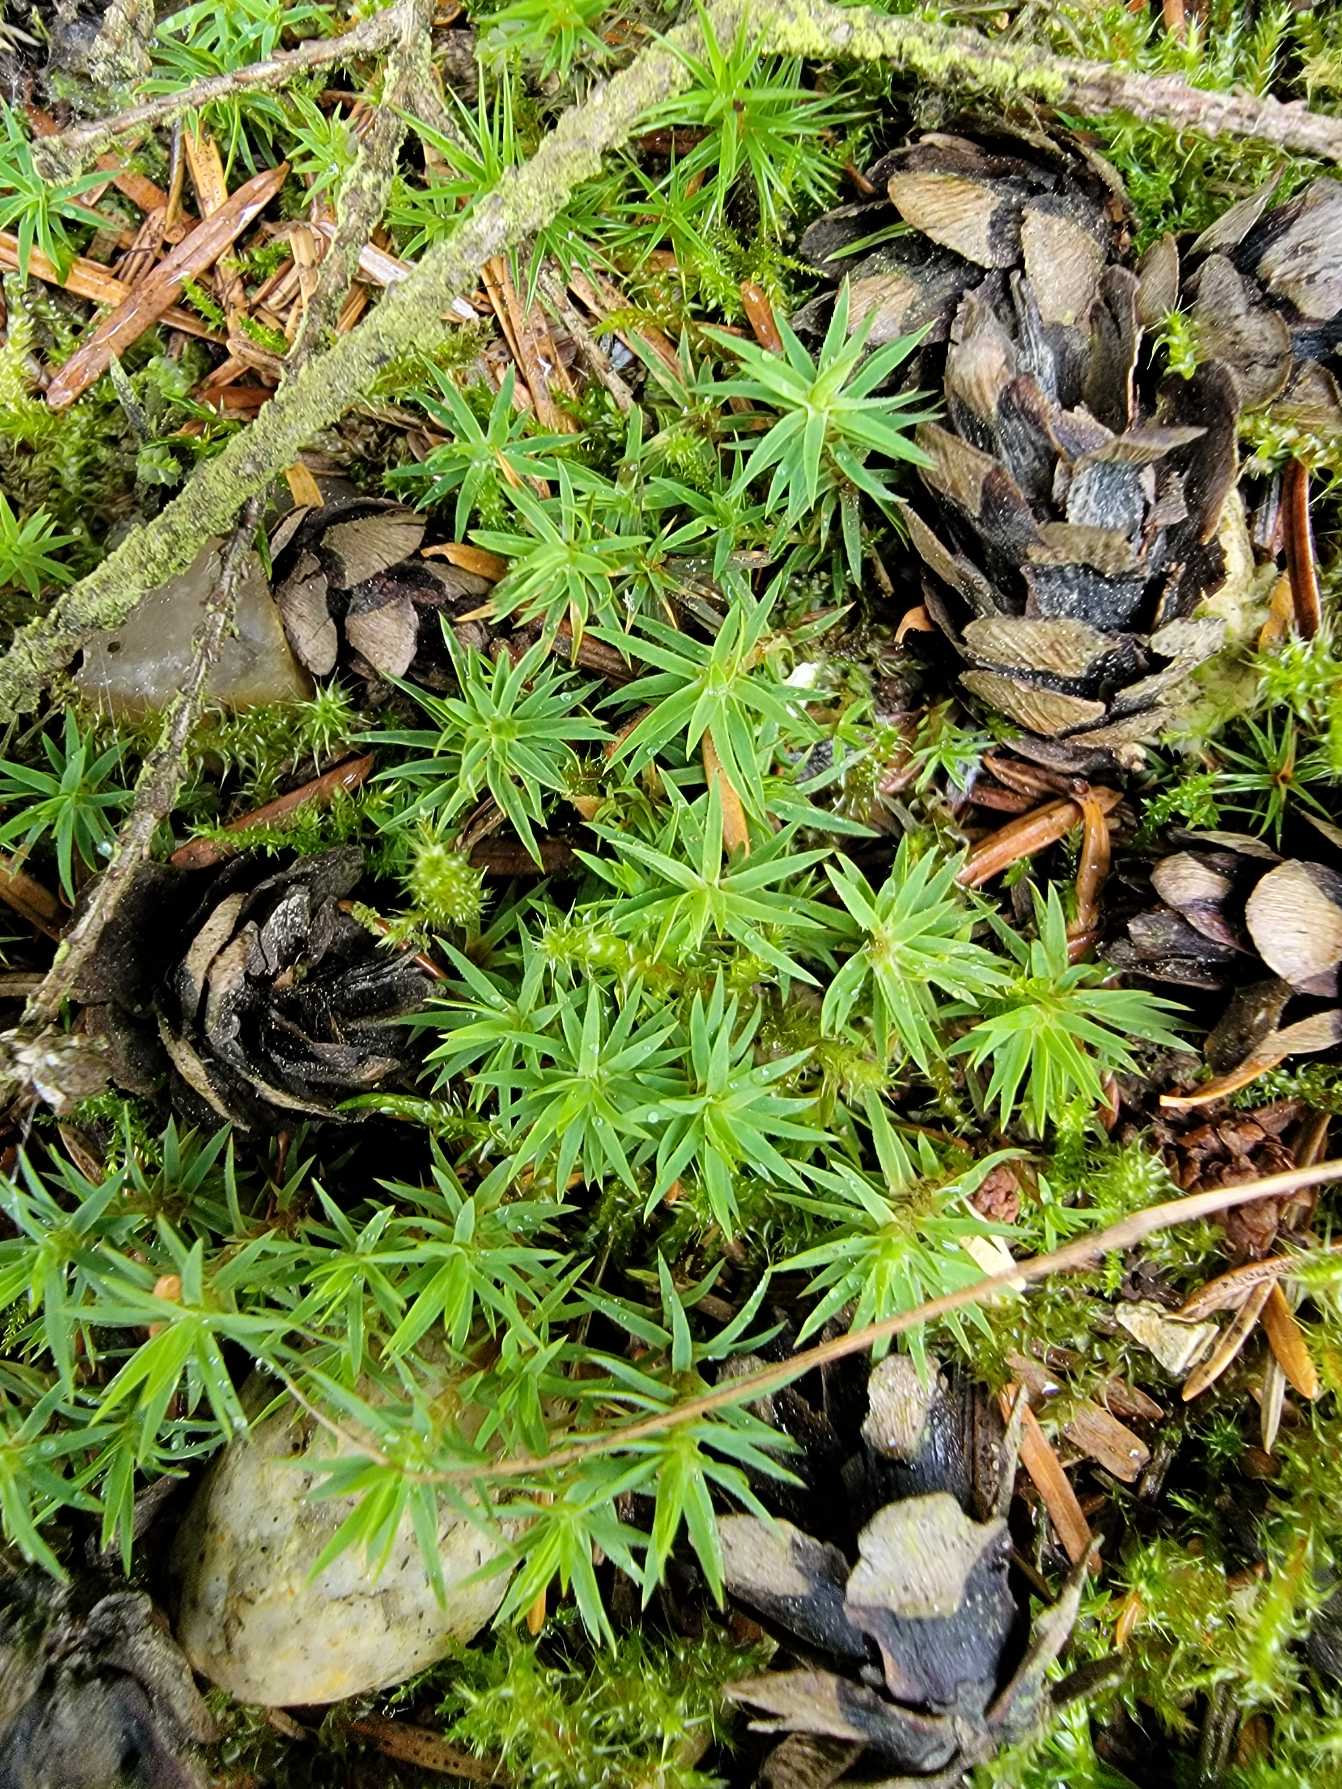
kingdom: Plantae
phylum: Bryophyta
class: Polytrichopsida
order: Polytrichales
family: Polytrichaceae
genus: Pogonatum
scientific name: Pogonatum urnigerum
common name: Stor urnekapsel
